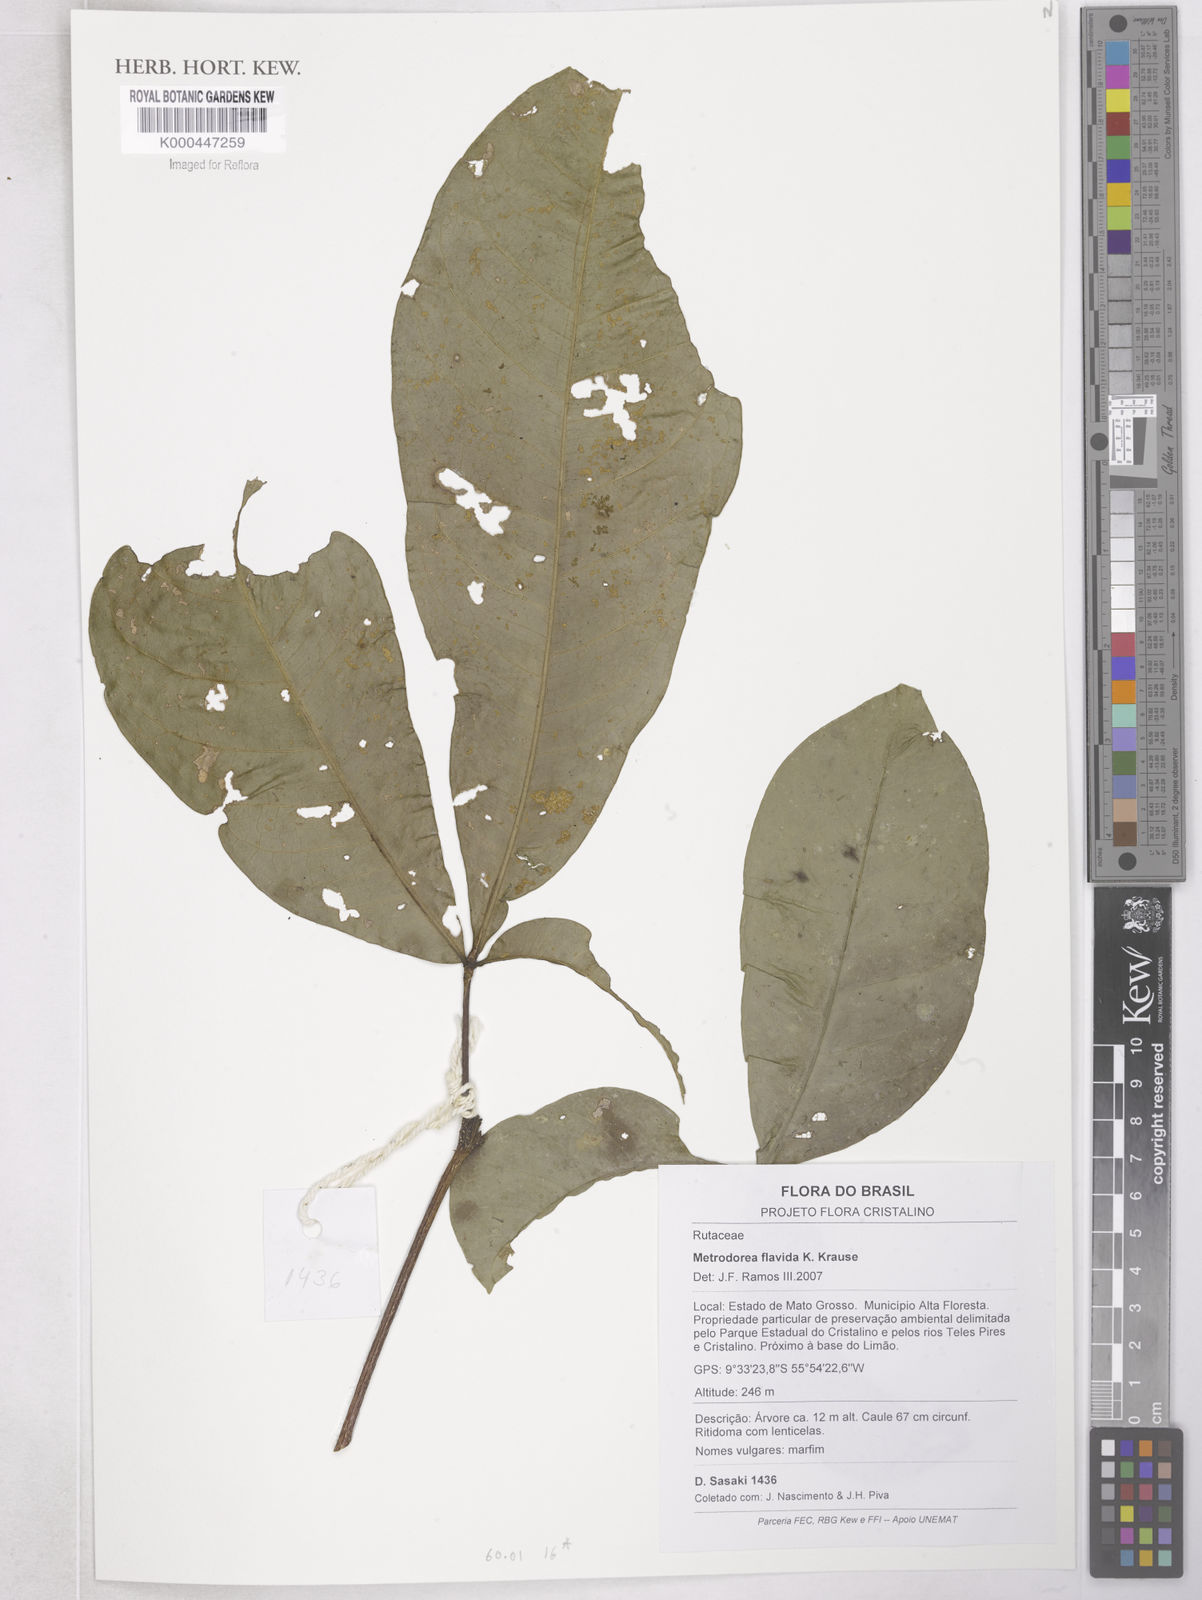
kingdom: Plantae
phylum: Tracheophyta
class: Magnoliopsida
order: Sapindales
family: Rutaceae
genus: Metrodorea
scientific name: Metrodorea flavida
